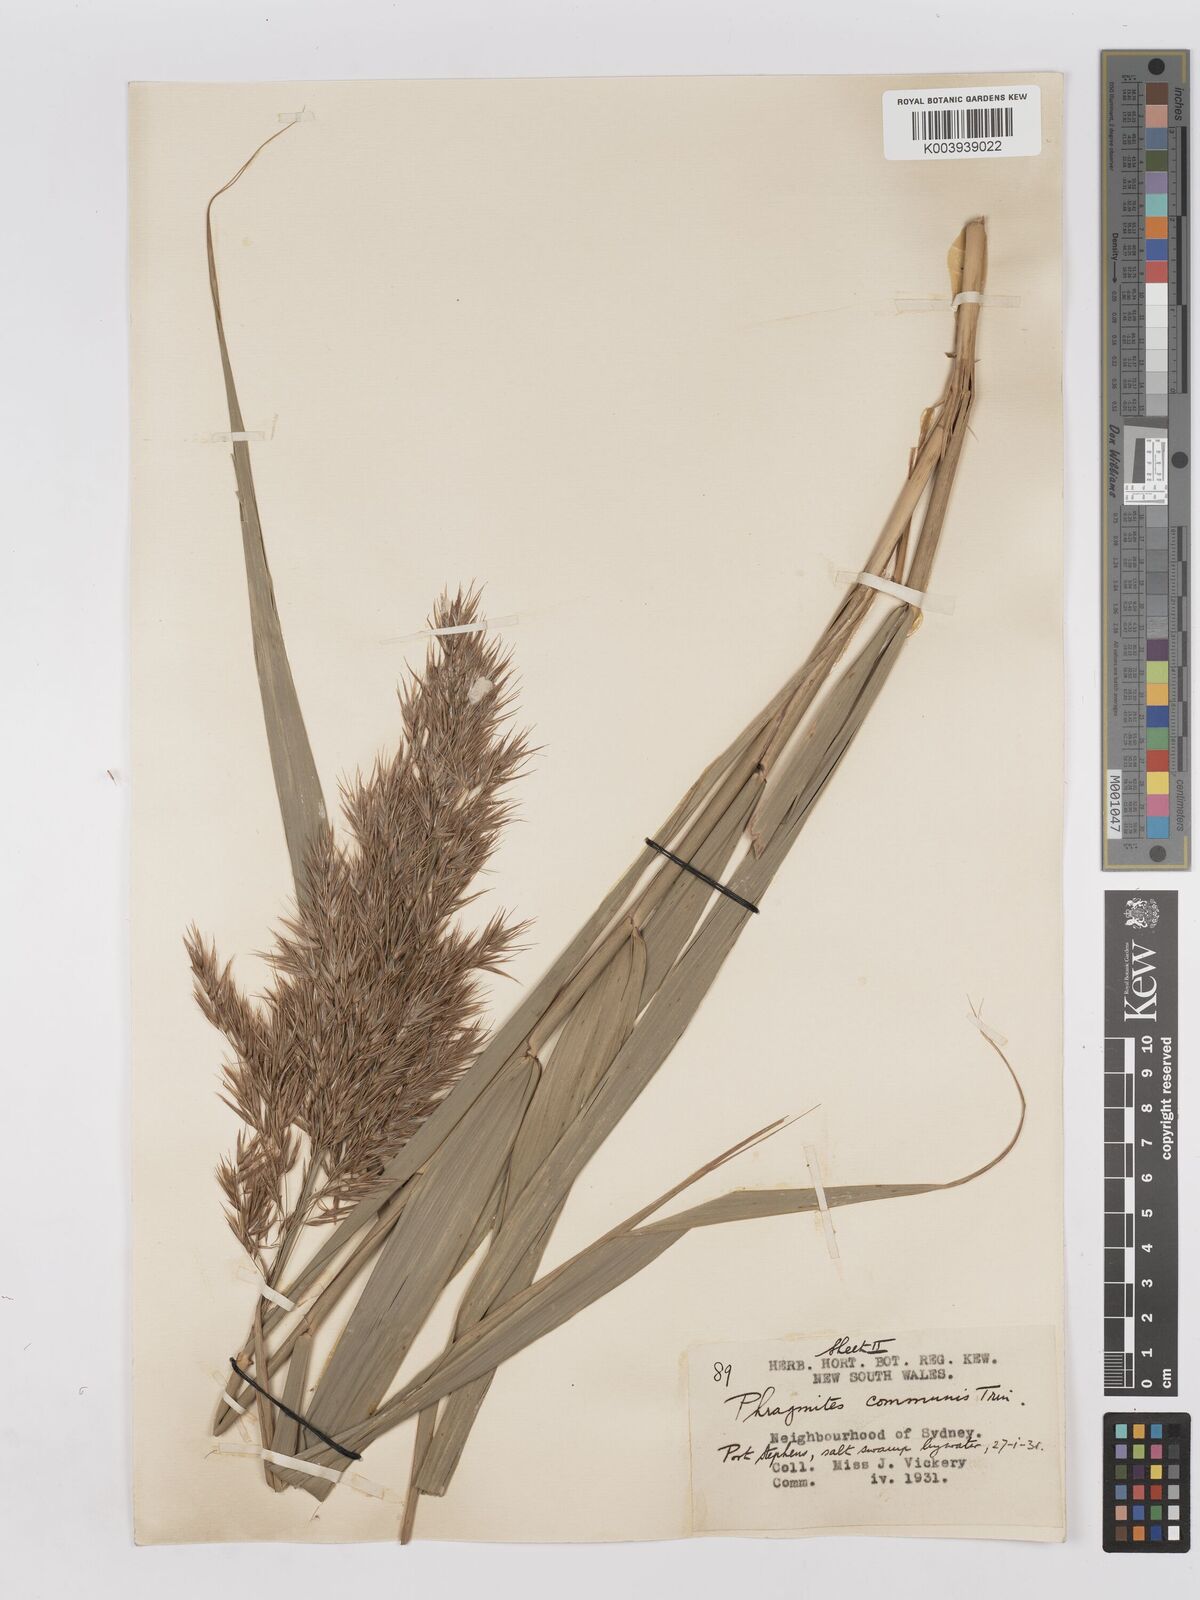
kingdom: Plantae
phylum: Tracheophyta
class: Liliopsida
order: Poales
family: Poaceae
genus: Phragmites
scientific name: Phragmites australis
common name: Common reed
